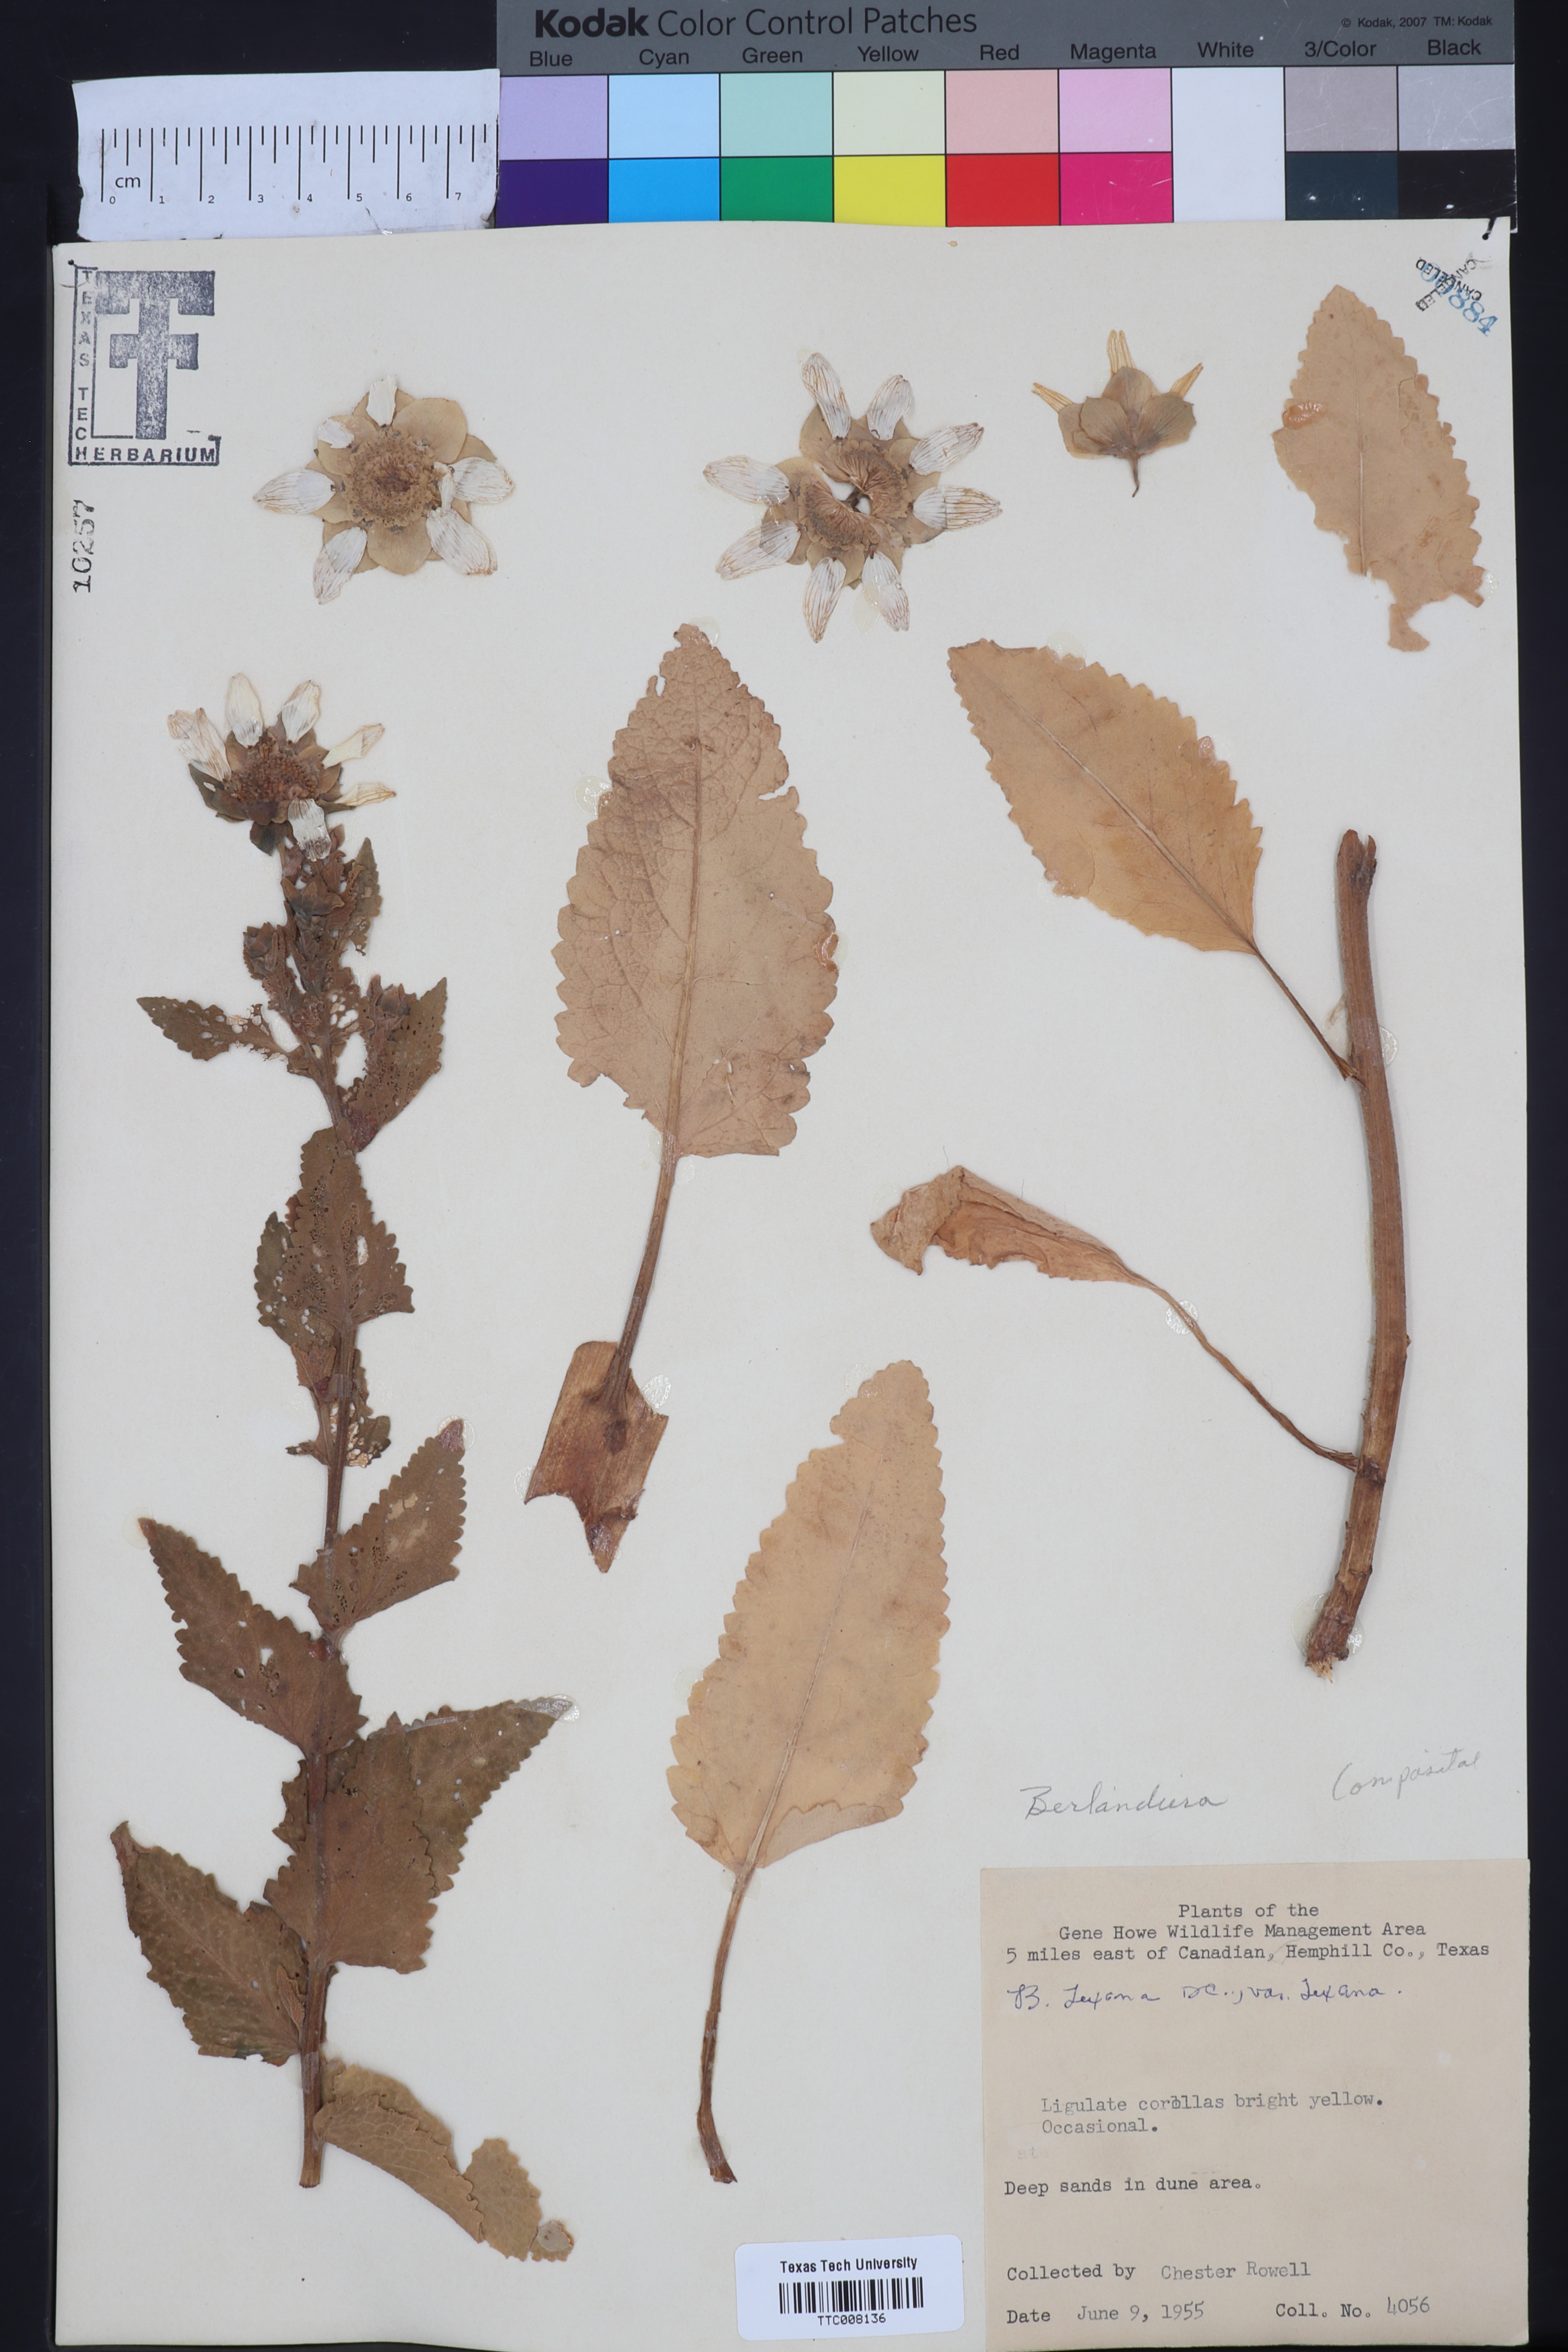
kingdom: Plantae
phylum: Tracheophyta
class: Magnoliopsida
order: Asterales
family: Asteraceae
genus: Berlandiera
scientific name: Berlandiera texana
